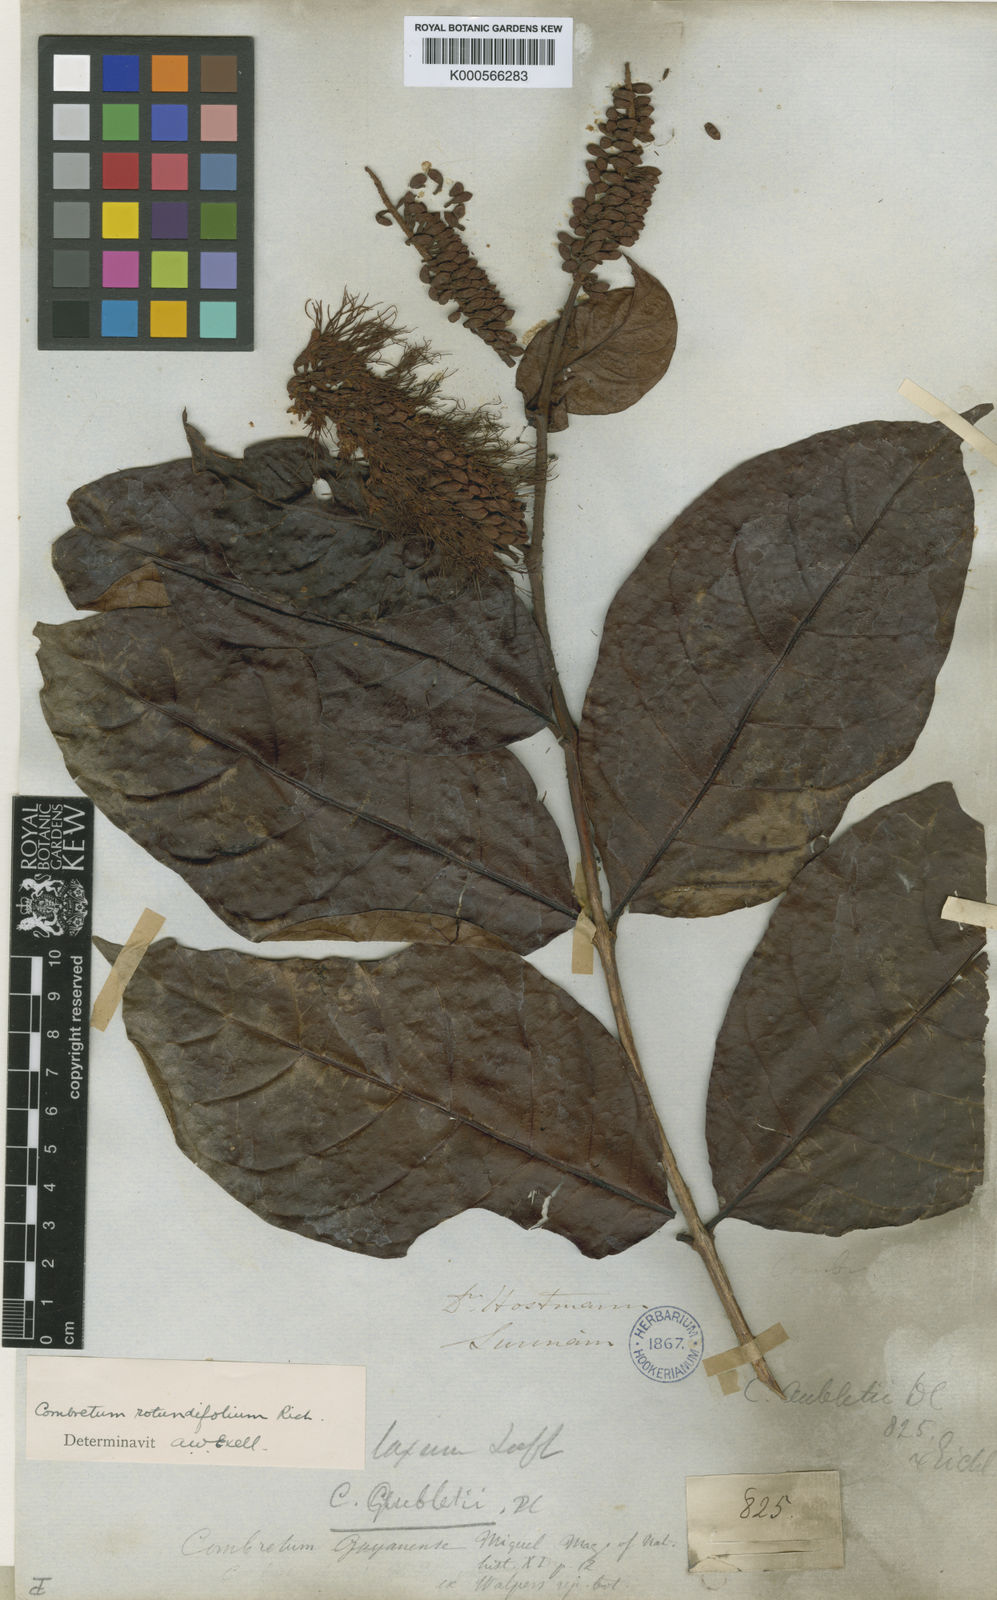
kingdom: Plantae
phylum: Tracheophyta
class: Magnoliopsida
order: Myrtales
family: Combretaceae
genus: Combretum
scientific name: Combretum rotundifolium
